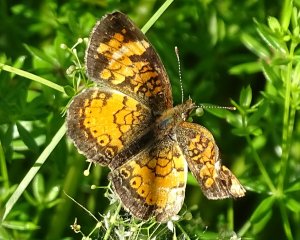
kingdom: Animalia
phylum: Arthropoda
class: Insecta
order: Lepidoptera
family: Nymphalidae
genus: Phyciodes
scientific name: Phyciodes
